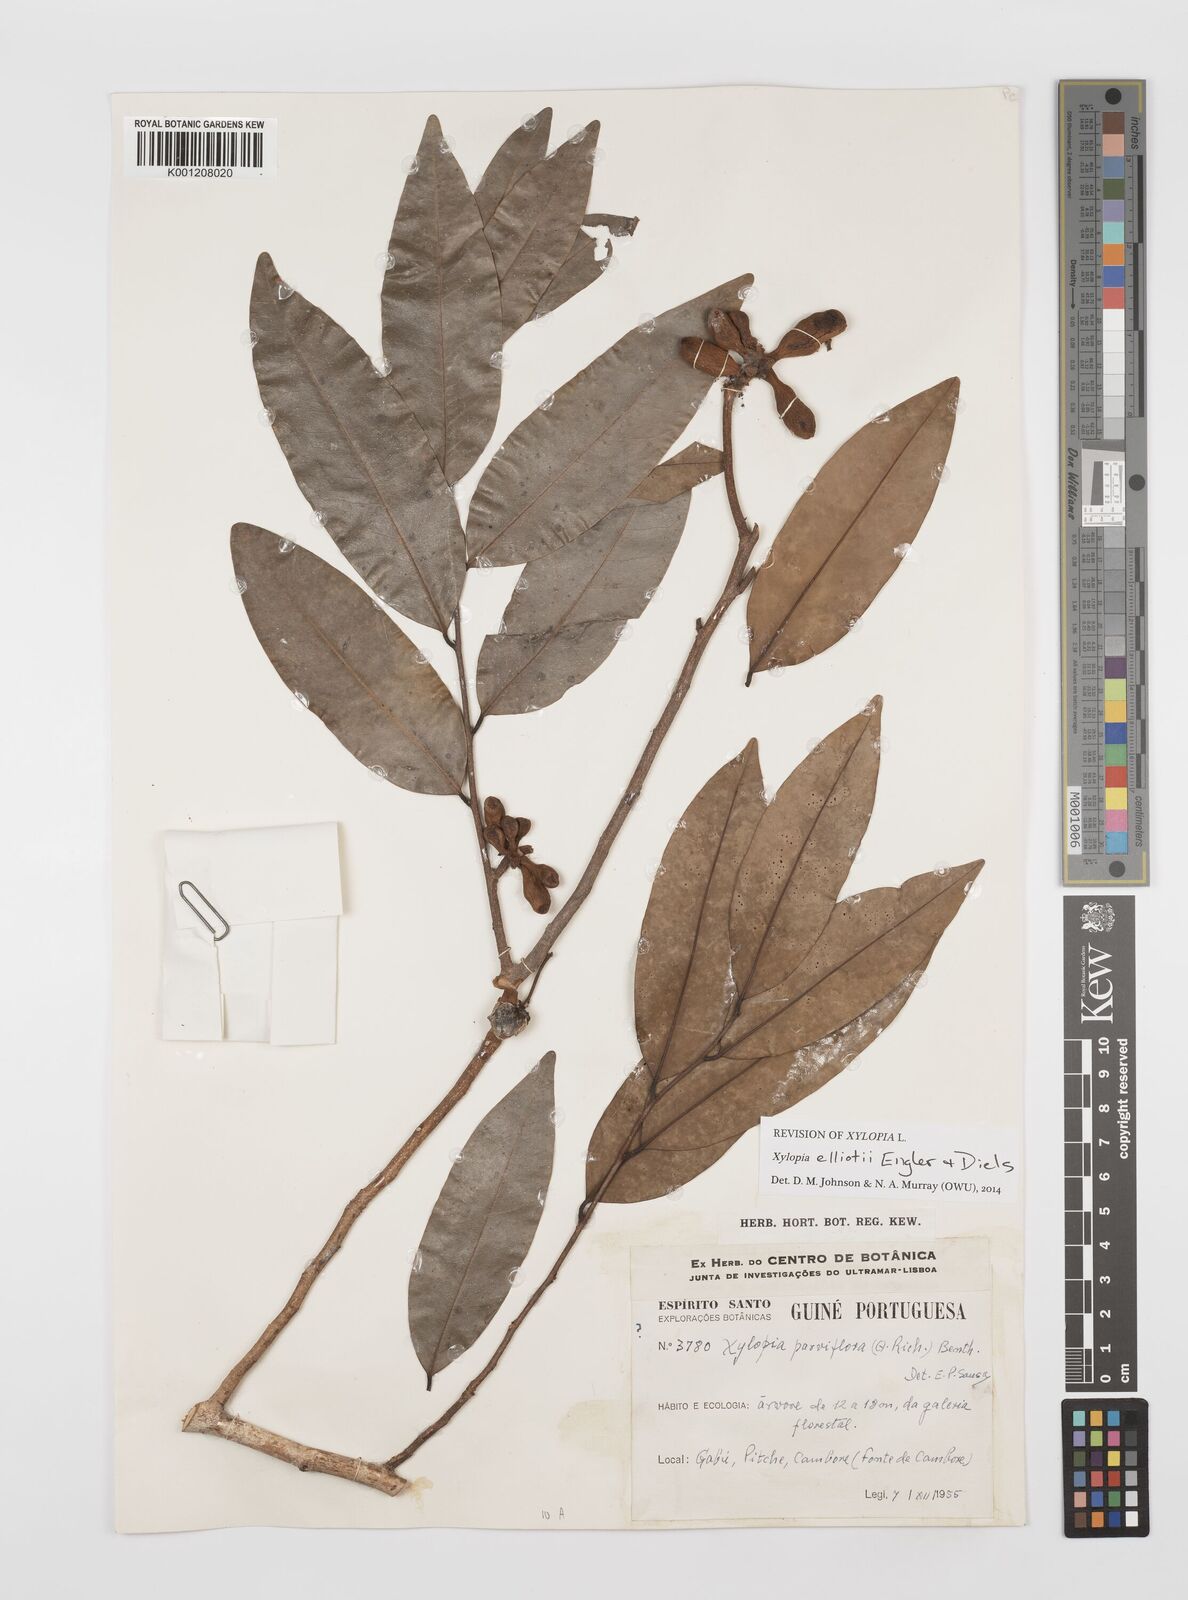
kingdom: Plantae
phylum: Tracheophyta
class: Magnoliopsida
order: Magnoliales
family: Annonaceae
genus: Xylopia
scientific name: Xylopia elliotii
